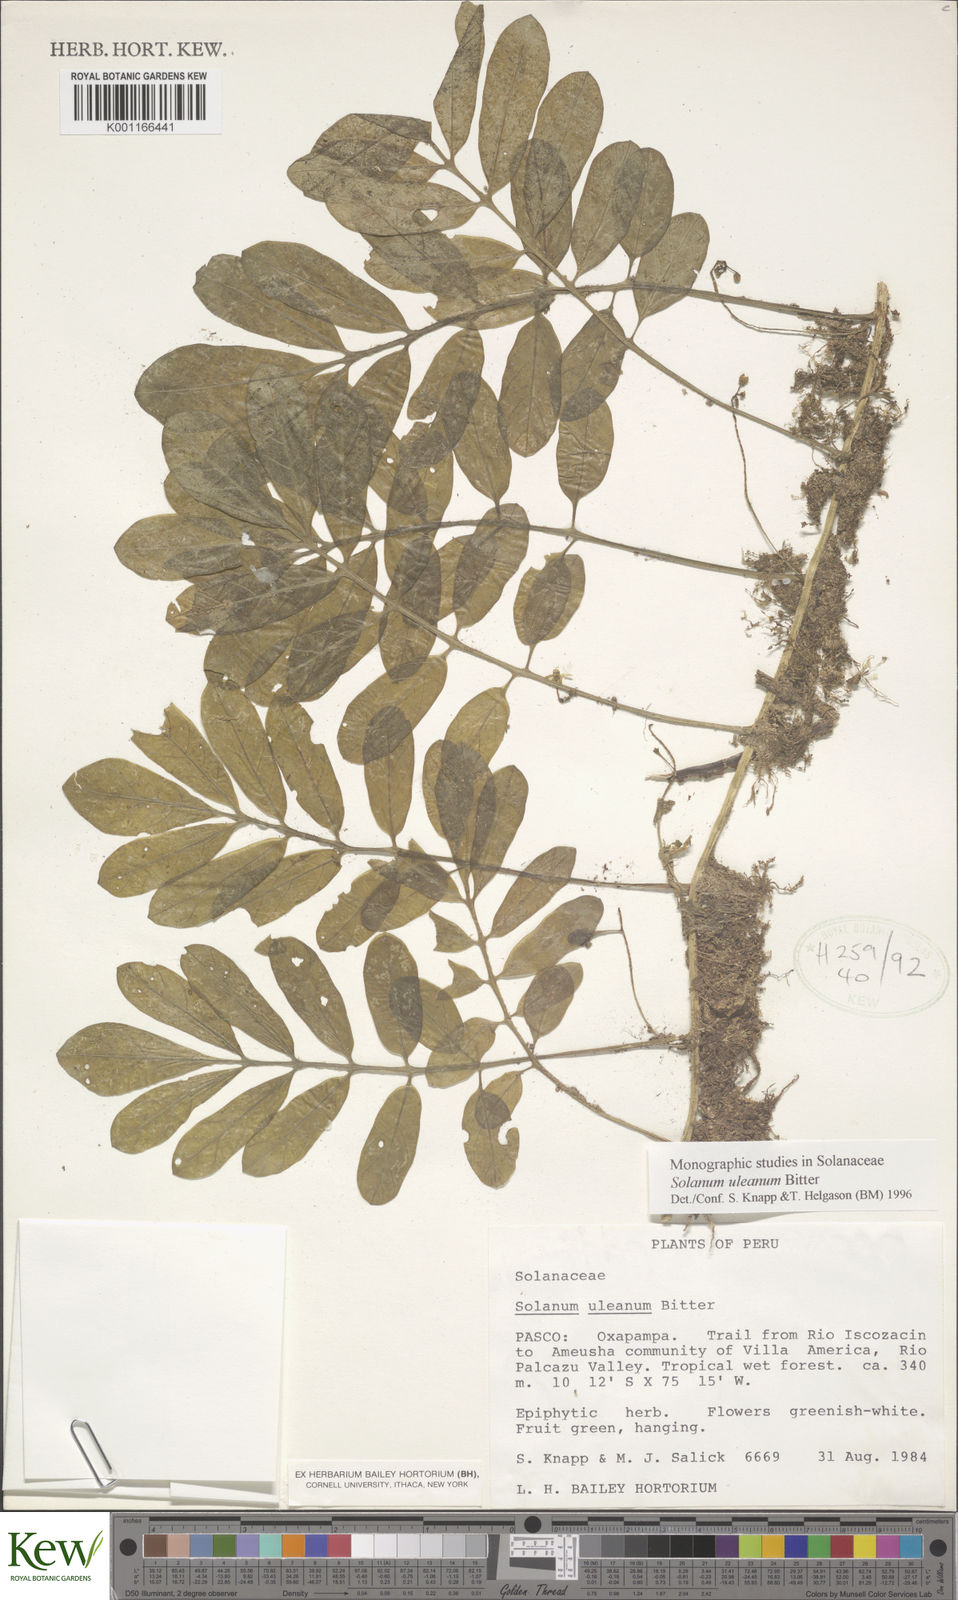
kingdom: Plantae
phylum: Tracheophyta
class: Magnoliopsida
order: Solanales
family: Solanaceae
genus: Solanum
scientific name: Solanum uleanum
